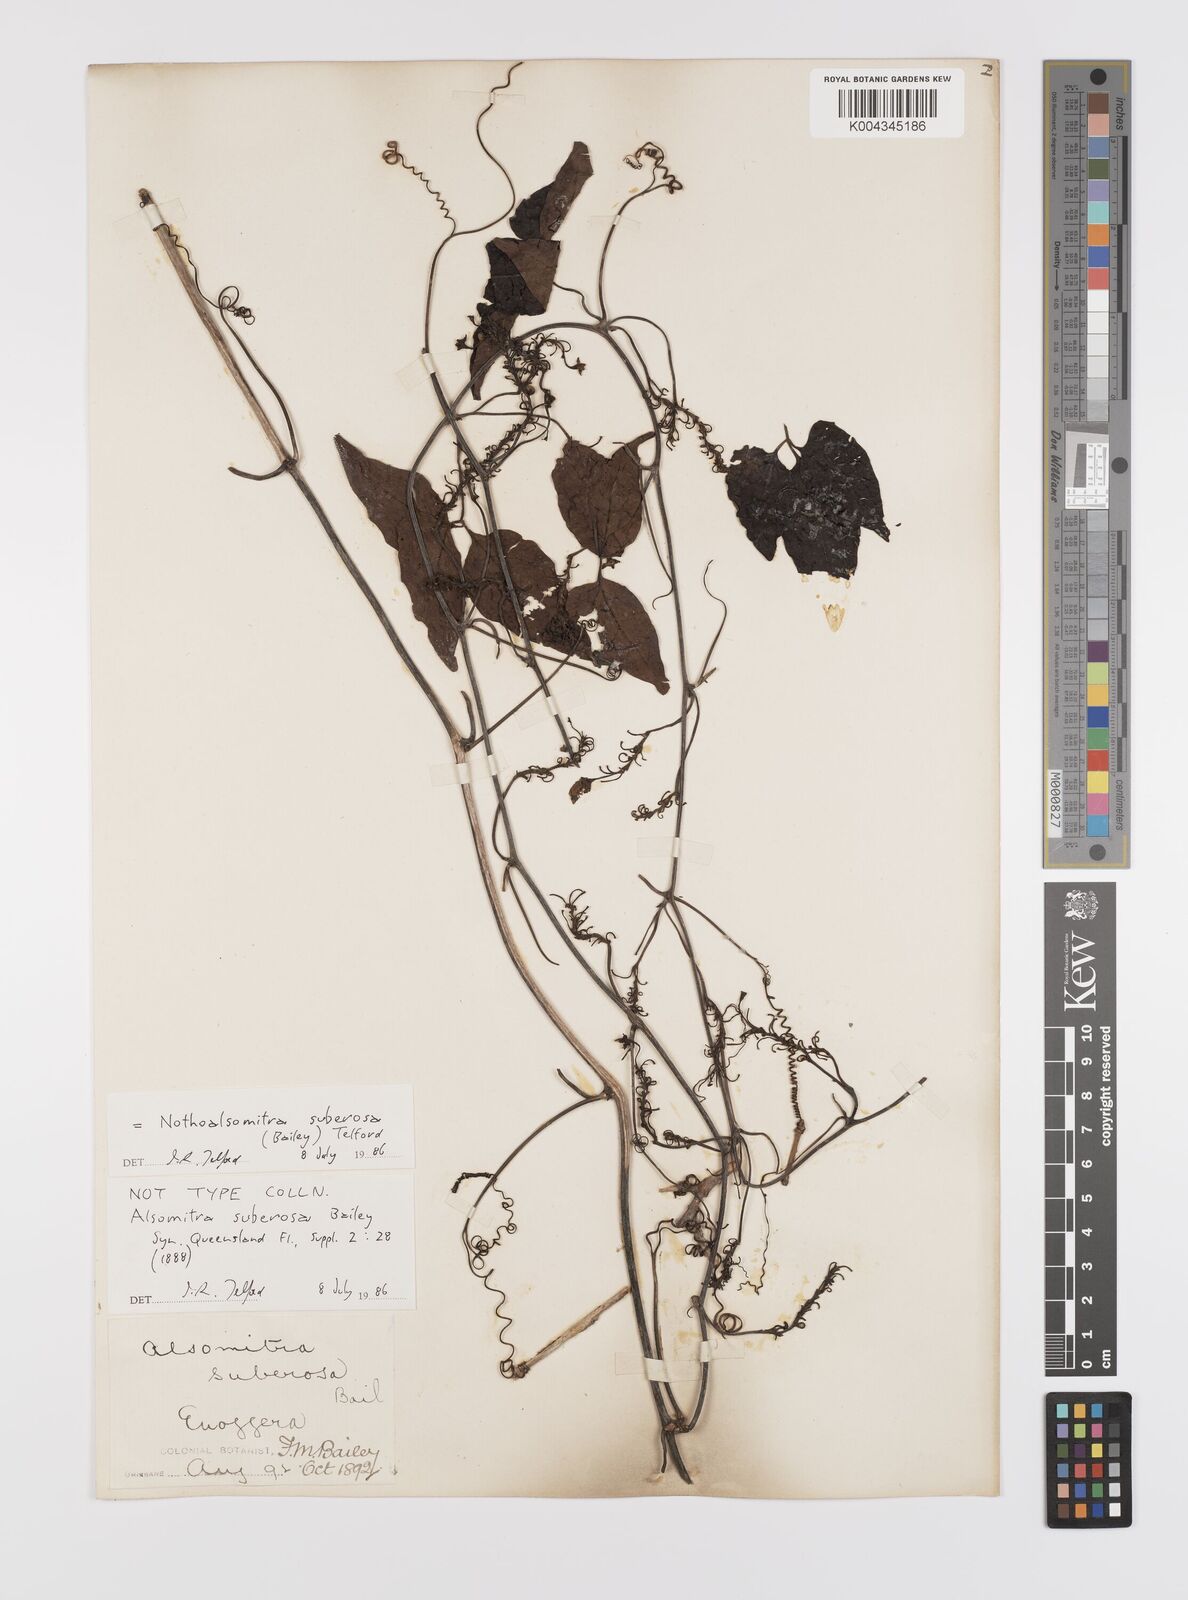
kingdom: Plantae
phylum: Tracheophyta
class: Magnoliopsida
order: Cucurbitales
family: Cucurbitaceae
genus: Nothoalsomitra
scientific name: Nothoalsomitra suberosa
